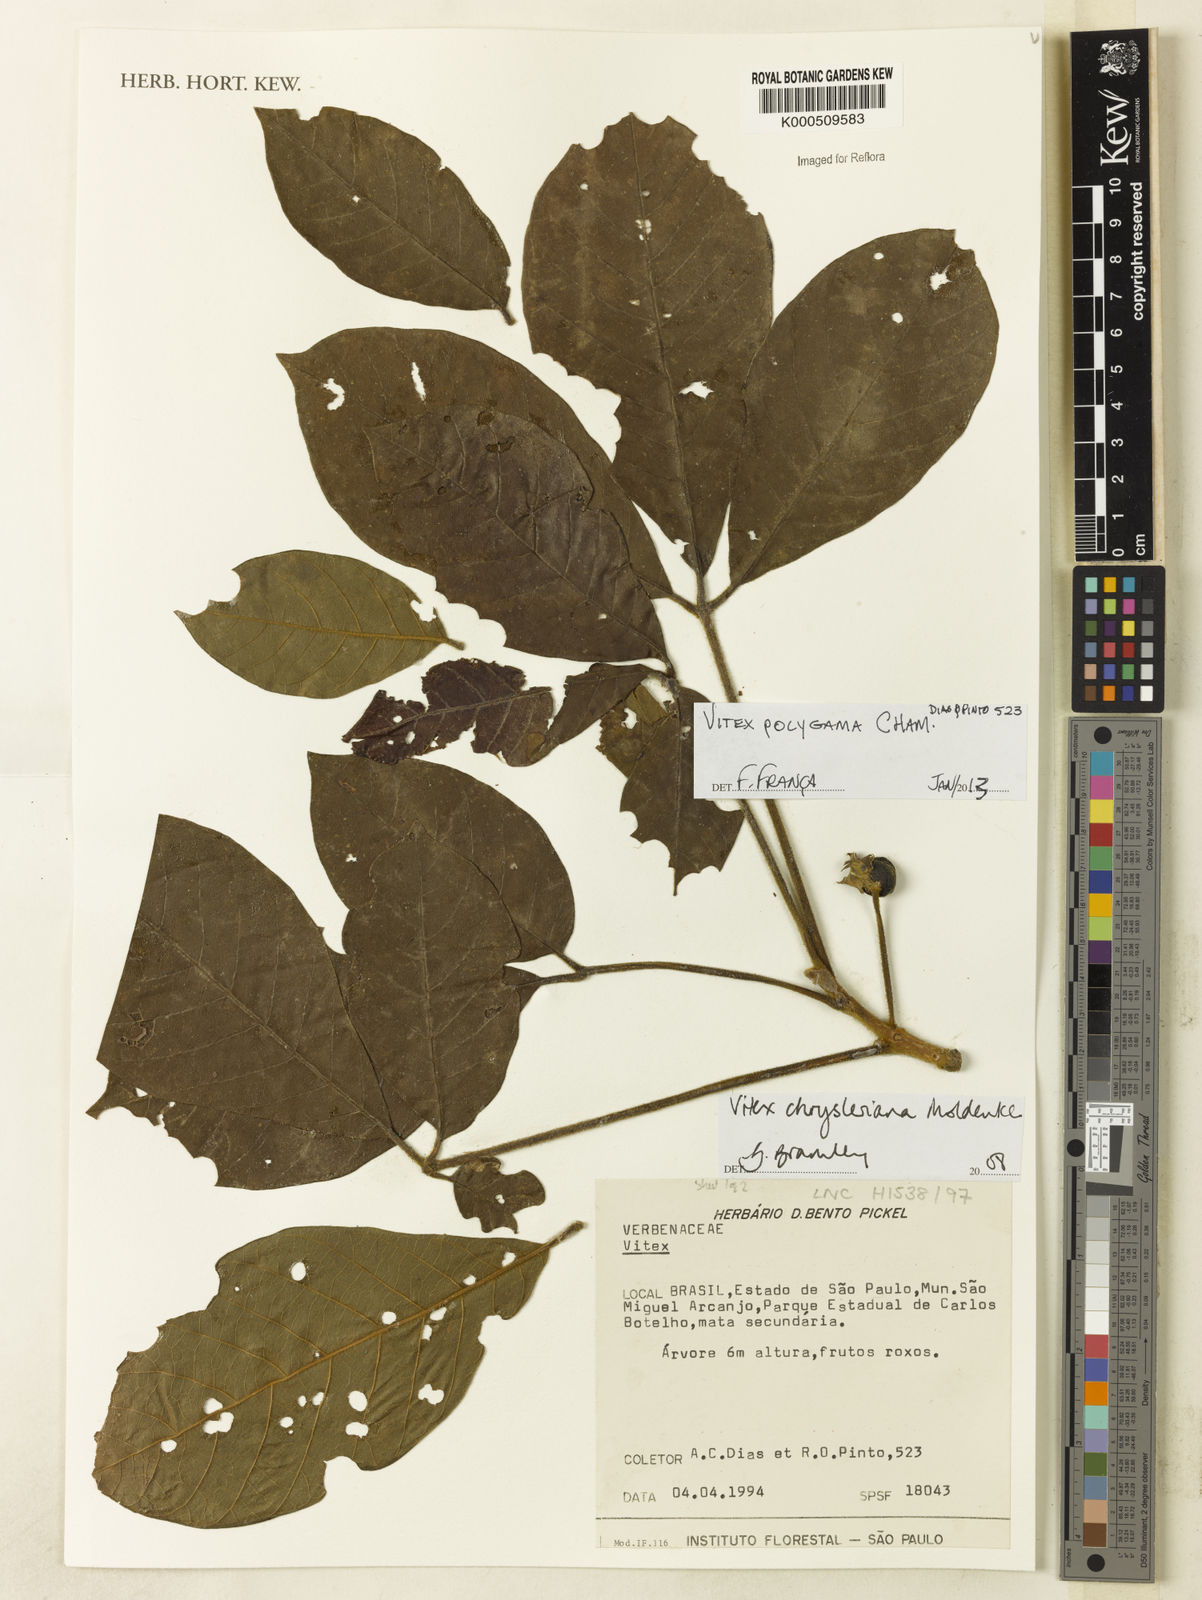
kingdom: Plantae
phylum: Tracheophyta
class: Magnoliopsida
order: Lamiales
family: Lamiaceae
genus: Vitex
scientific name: Vitex polygama
